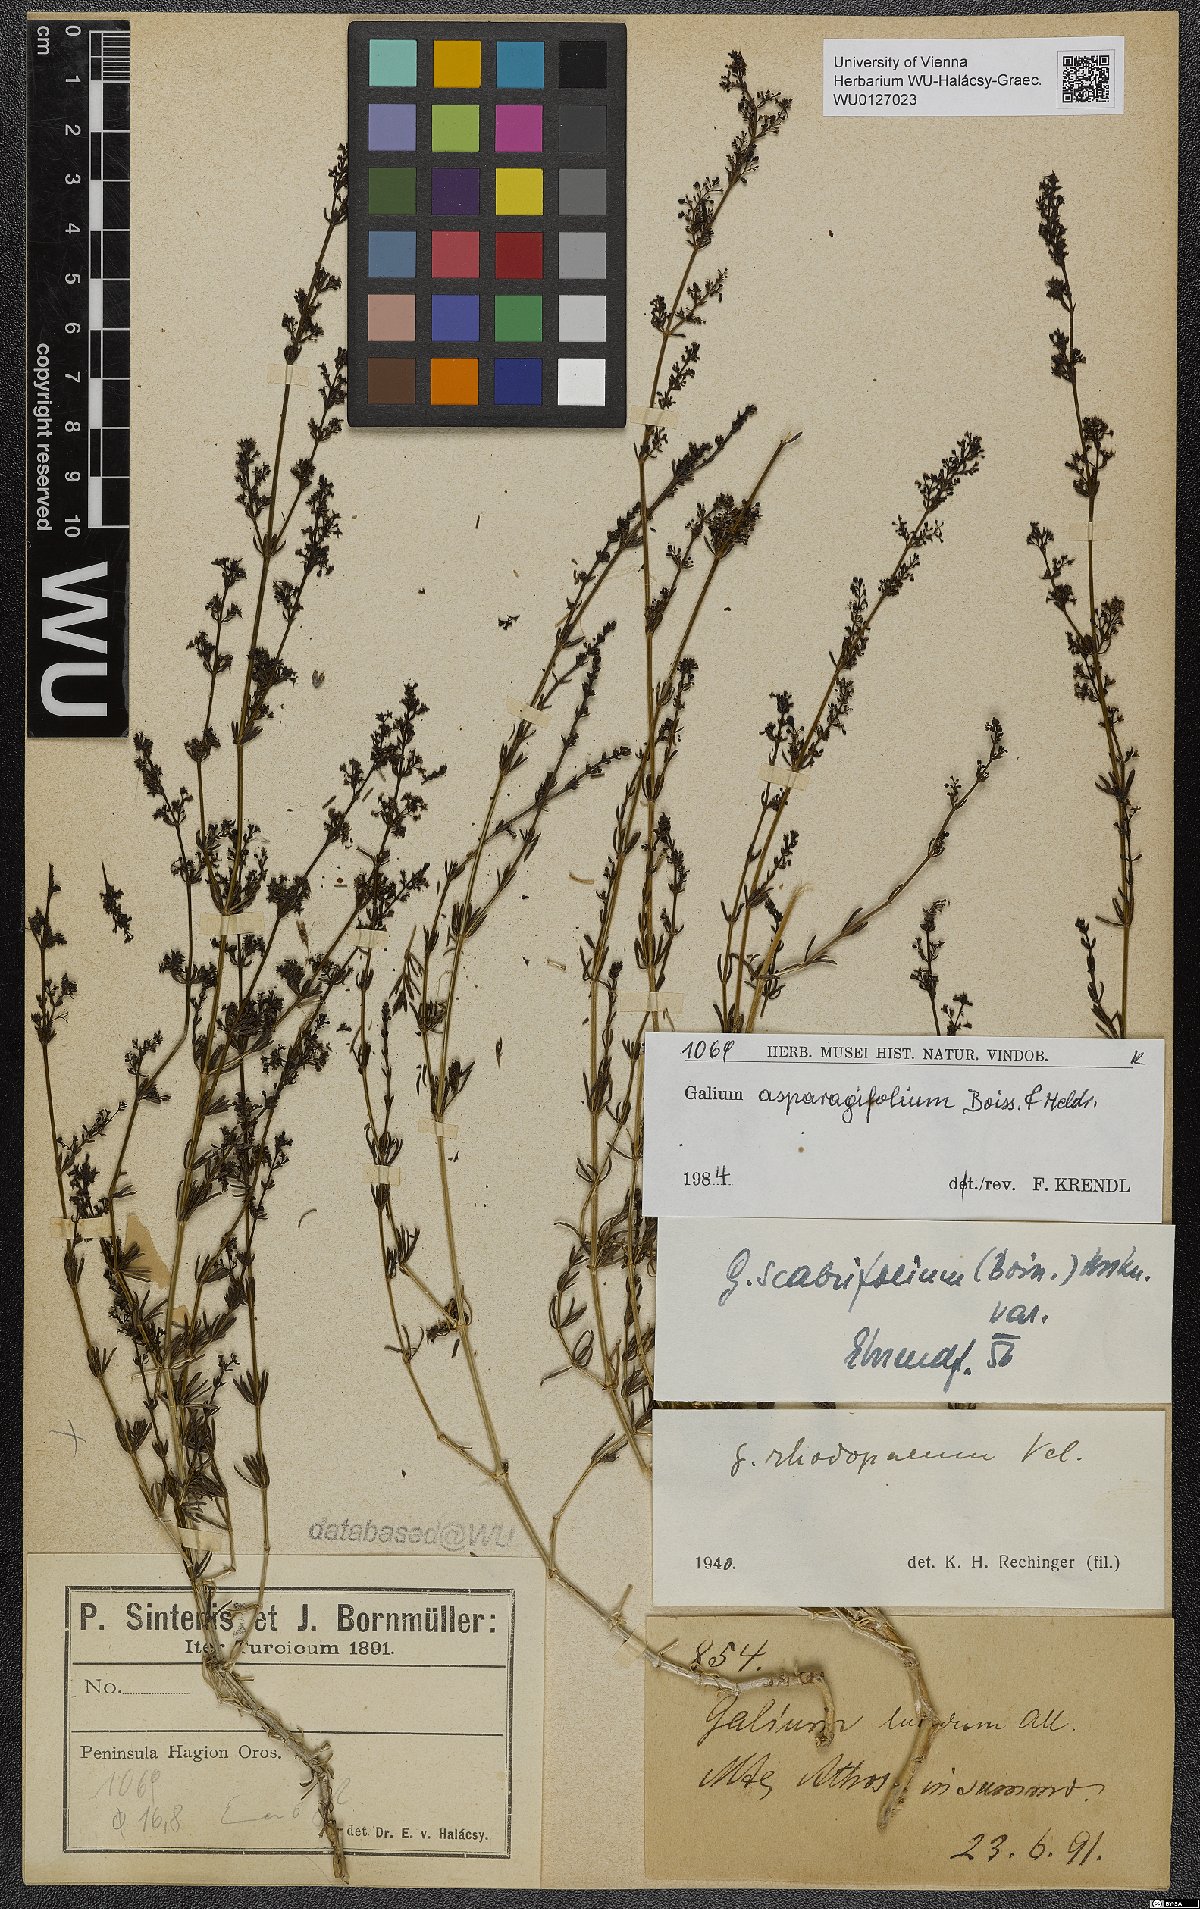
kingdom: Plantae
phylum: Tracheophyta
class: Magnoliopsida
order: Gentianales
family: Rubiaceae
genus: Galium
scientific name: Galium asparagifolium
